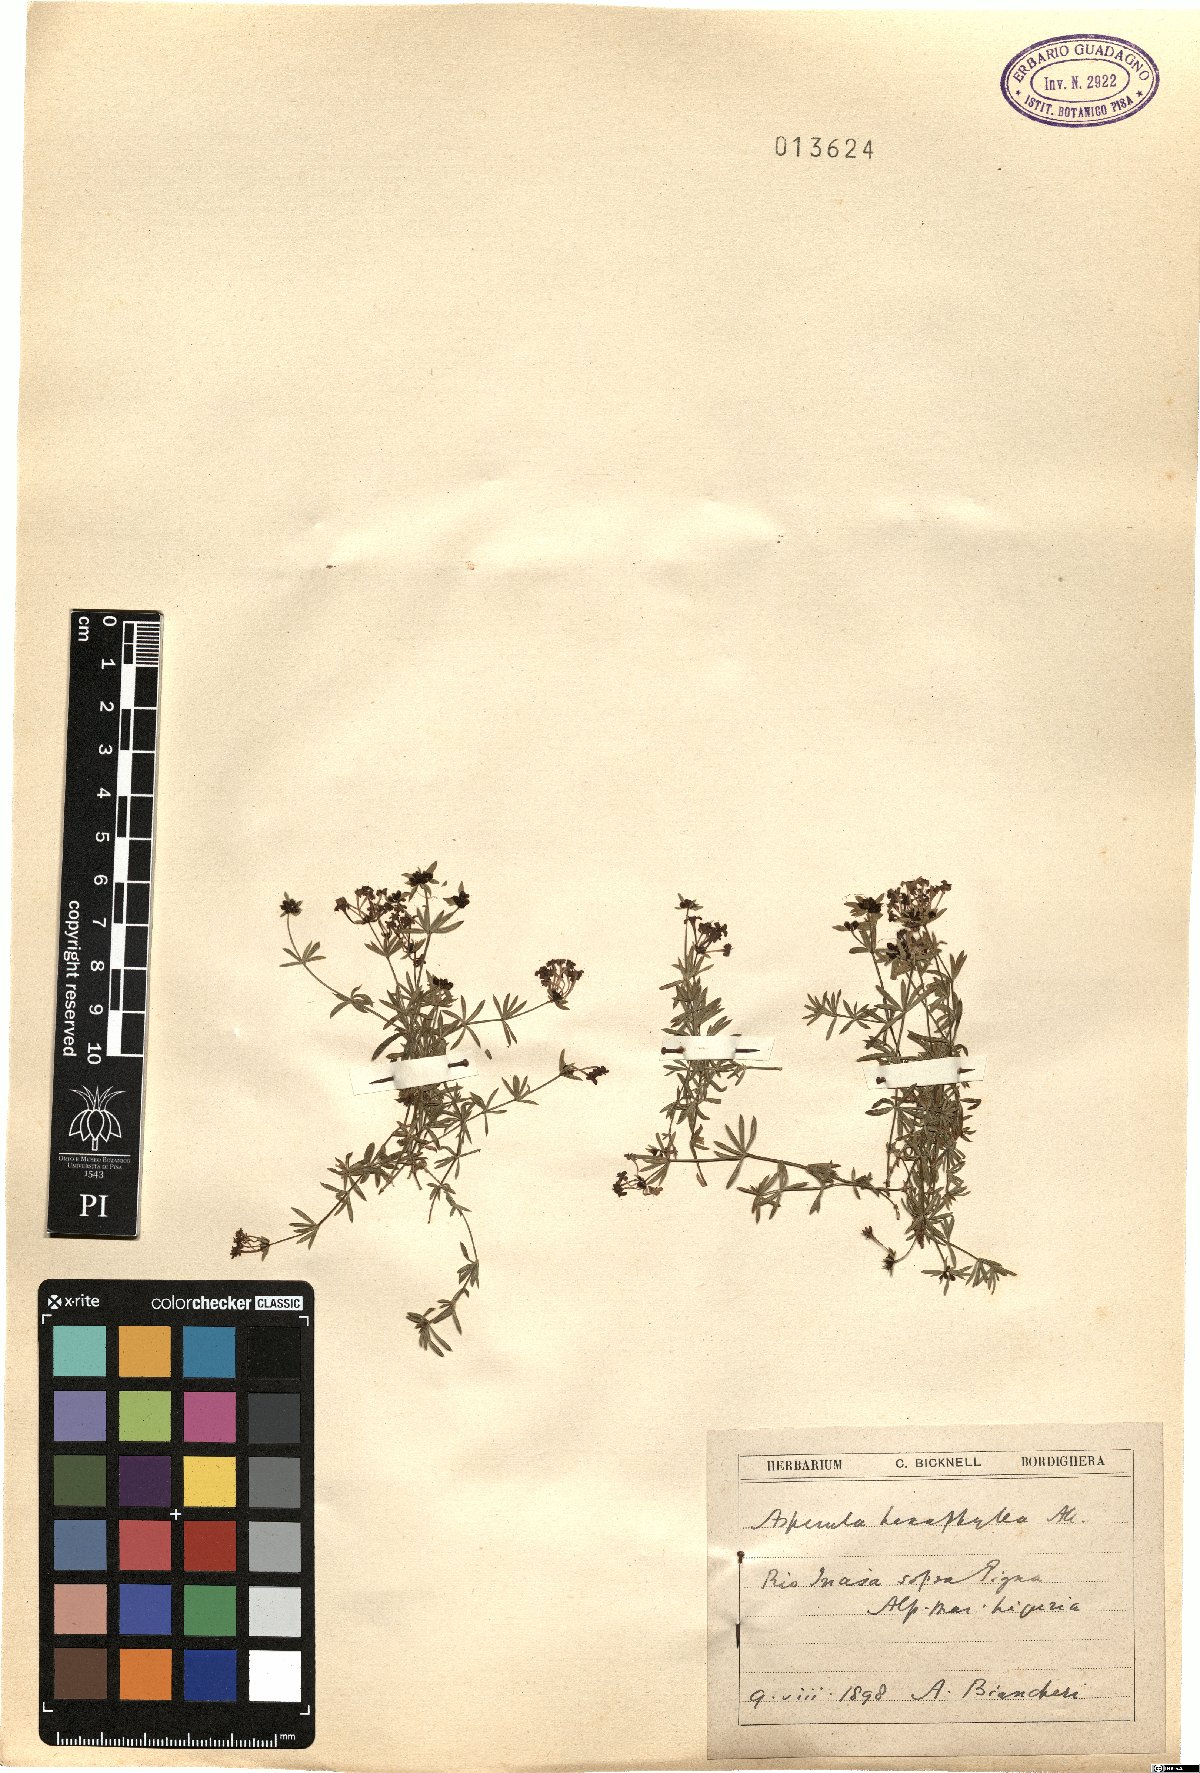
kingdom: Plantae
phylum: Tracheophyta
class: Magnoliopsida
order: Gentianales
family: Rubiaceae
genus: Hexaphylla
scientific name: Hexaphylla allionii
